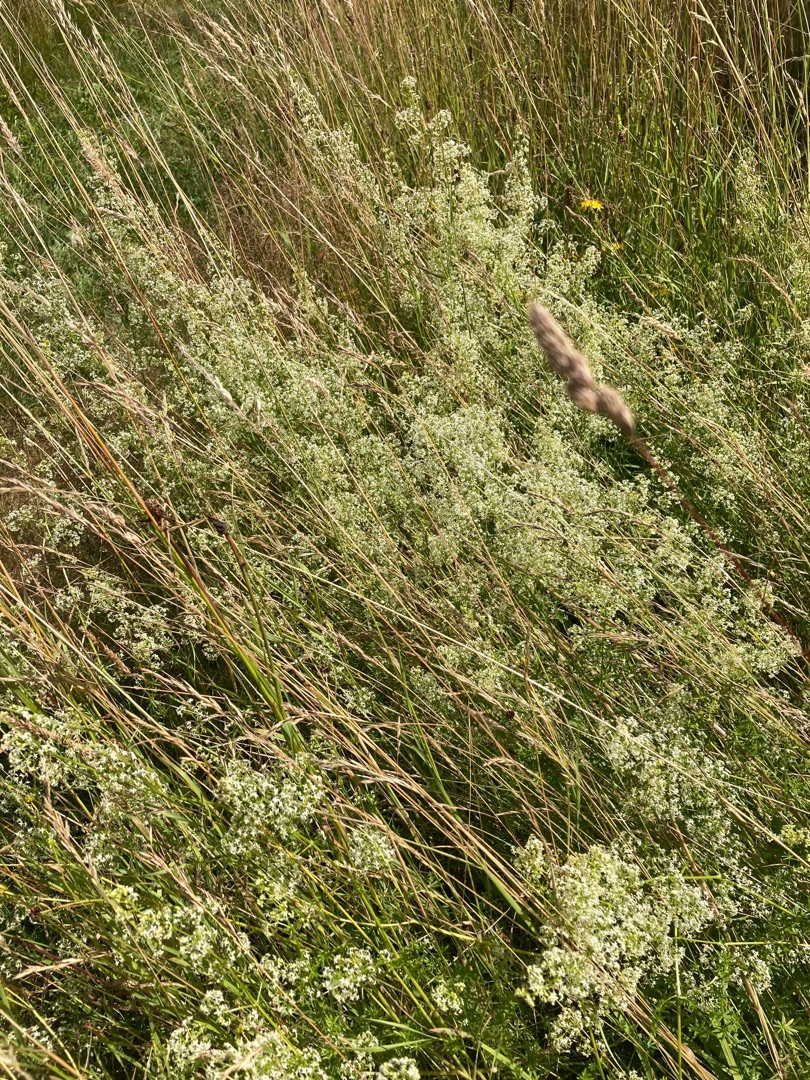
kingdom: Plantae
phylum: Tracheophyta
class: Magnoliopsida
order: Gentianales
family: Rubiaceae
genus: Galium
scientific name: Galium mollugo
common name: Hvid snerre
